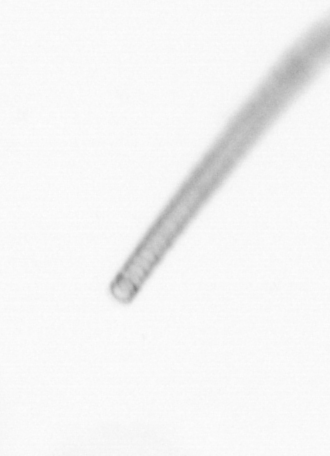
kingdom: Chromista
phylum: Ochrophyta
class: Bacillariophyceae
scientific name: Bacillariophyceae
